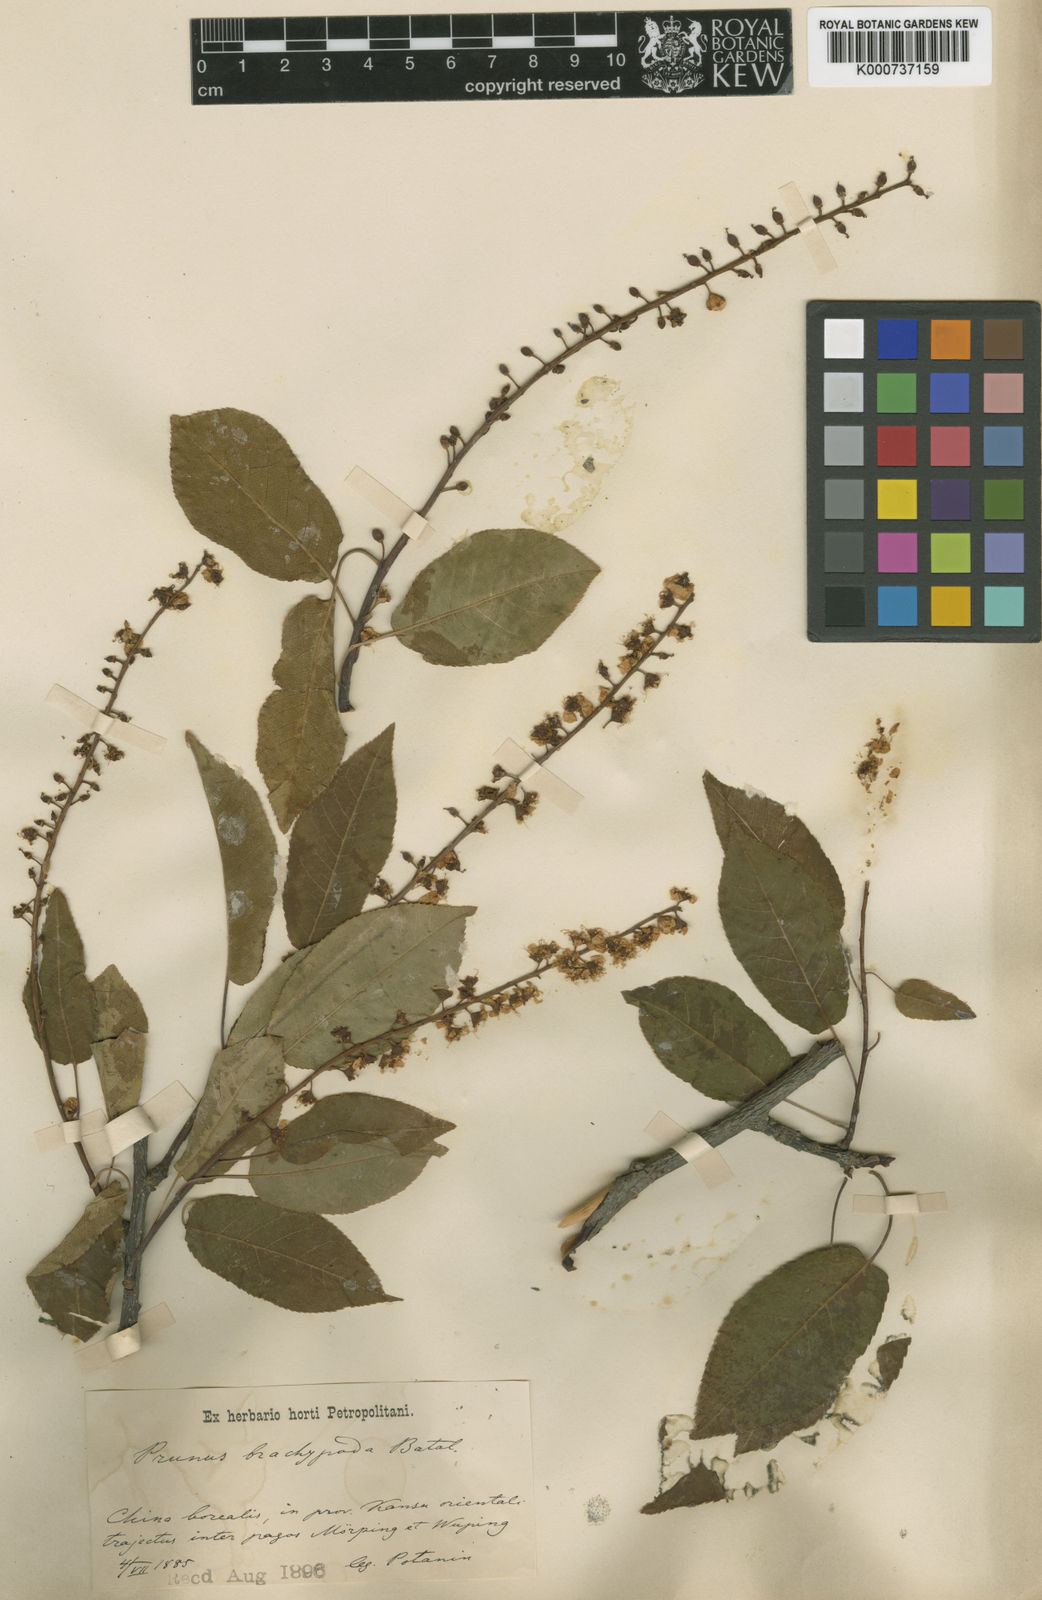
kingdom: Plantae
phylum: Tracheophyta
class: Magnoliopsida
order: Rosales
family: Rosaceae
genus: Prunus
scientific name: Prunus brachypoda
